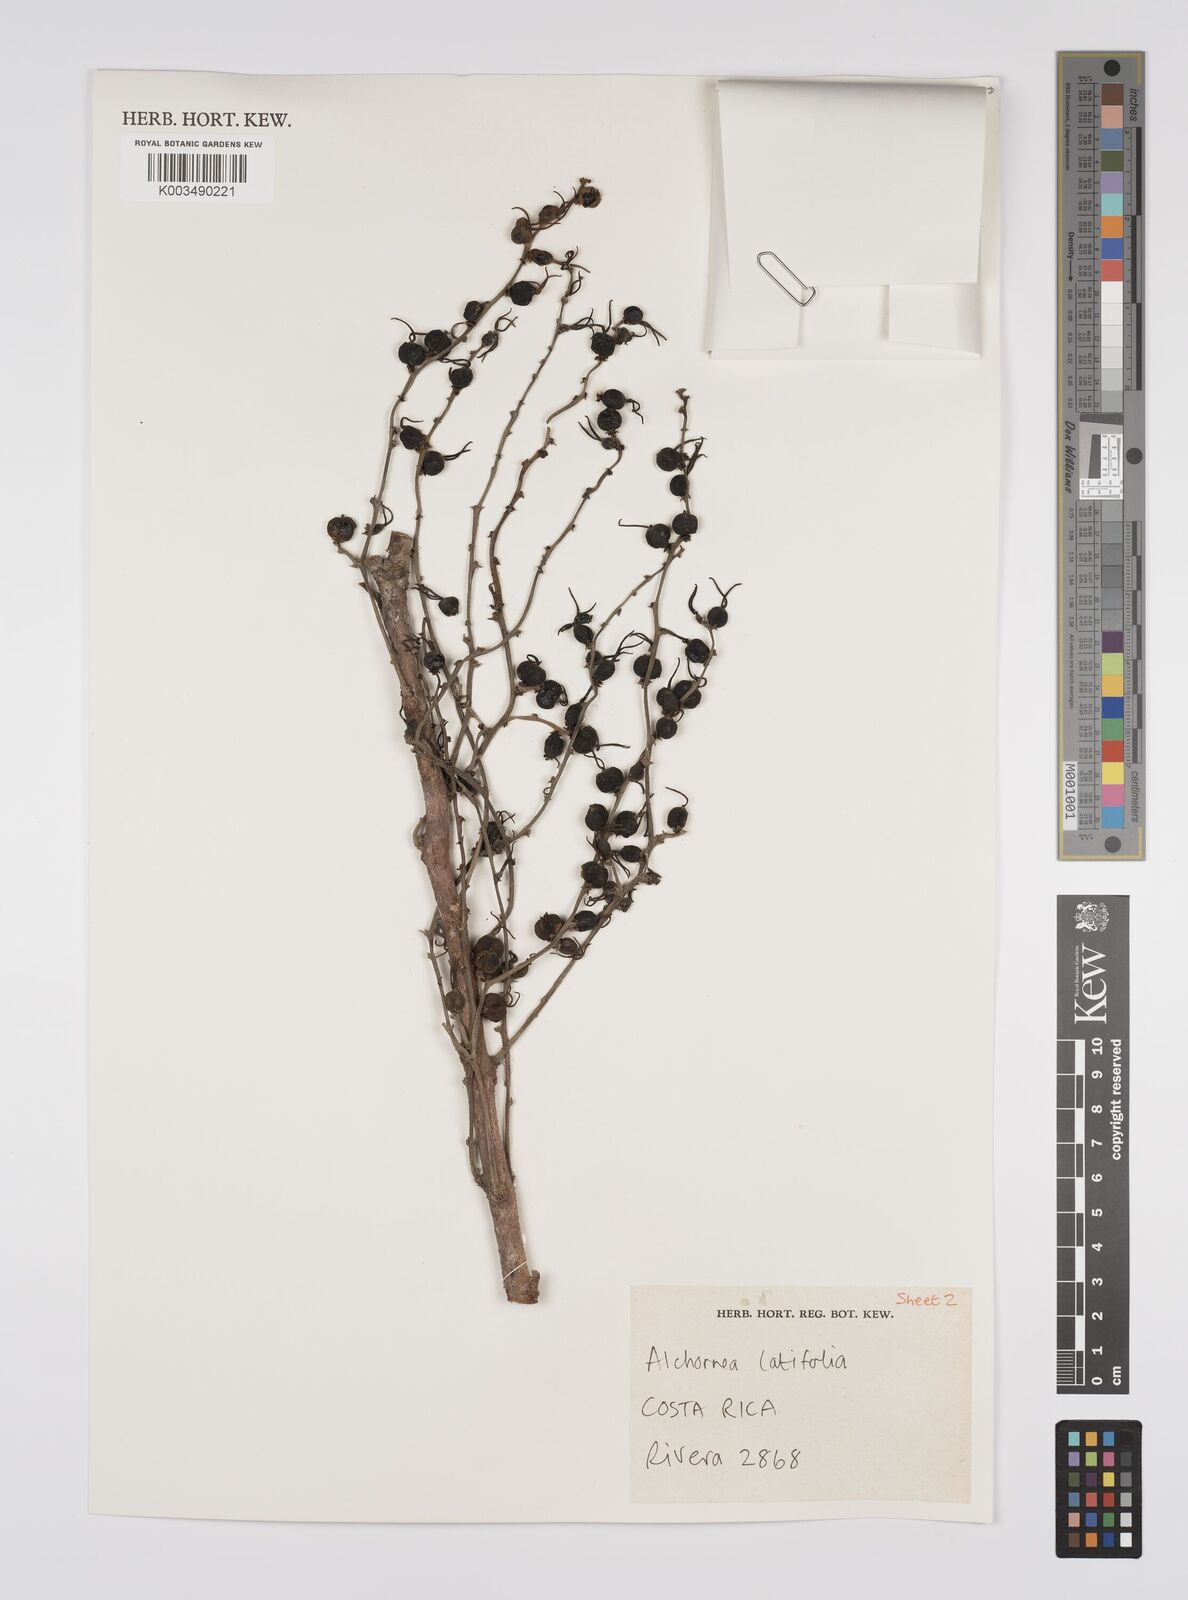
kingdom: Plantae
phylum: Tracheophyta
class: Magnoliopsida
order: Malpighiales
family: Euphorbiaceae
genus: Alchornea
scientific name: Alchornea latifolia
